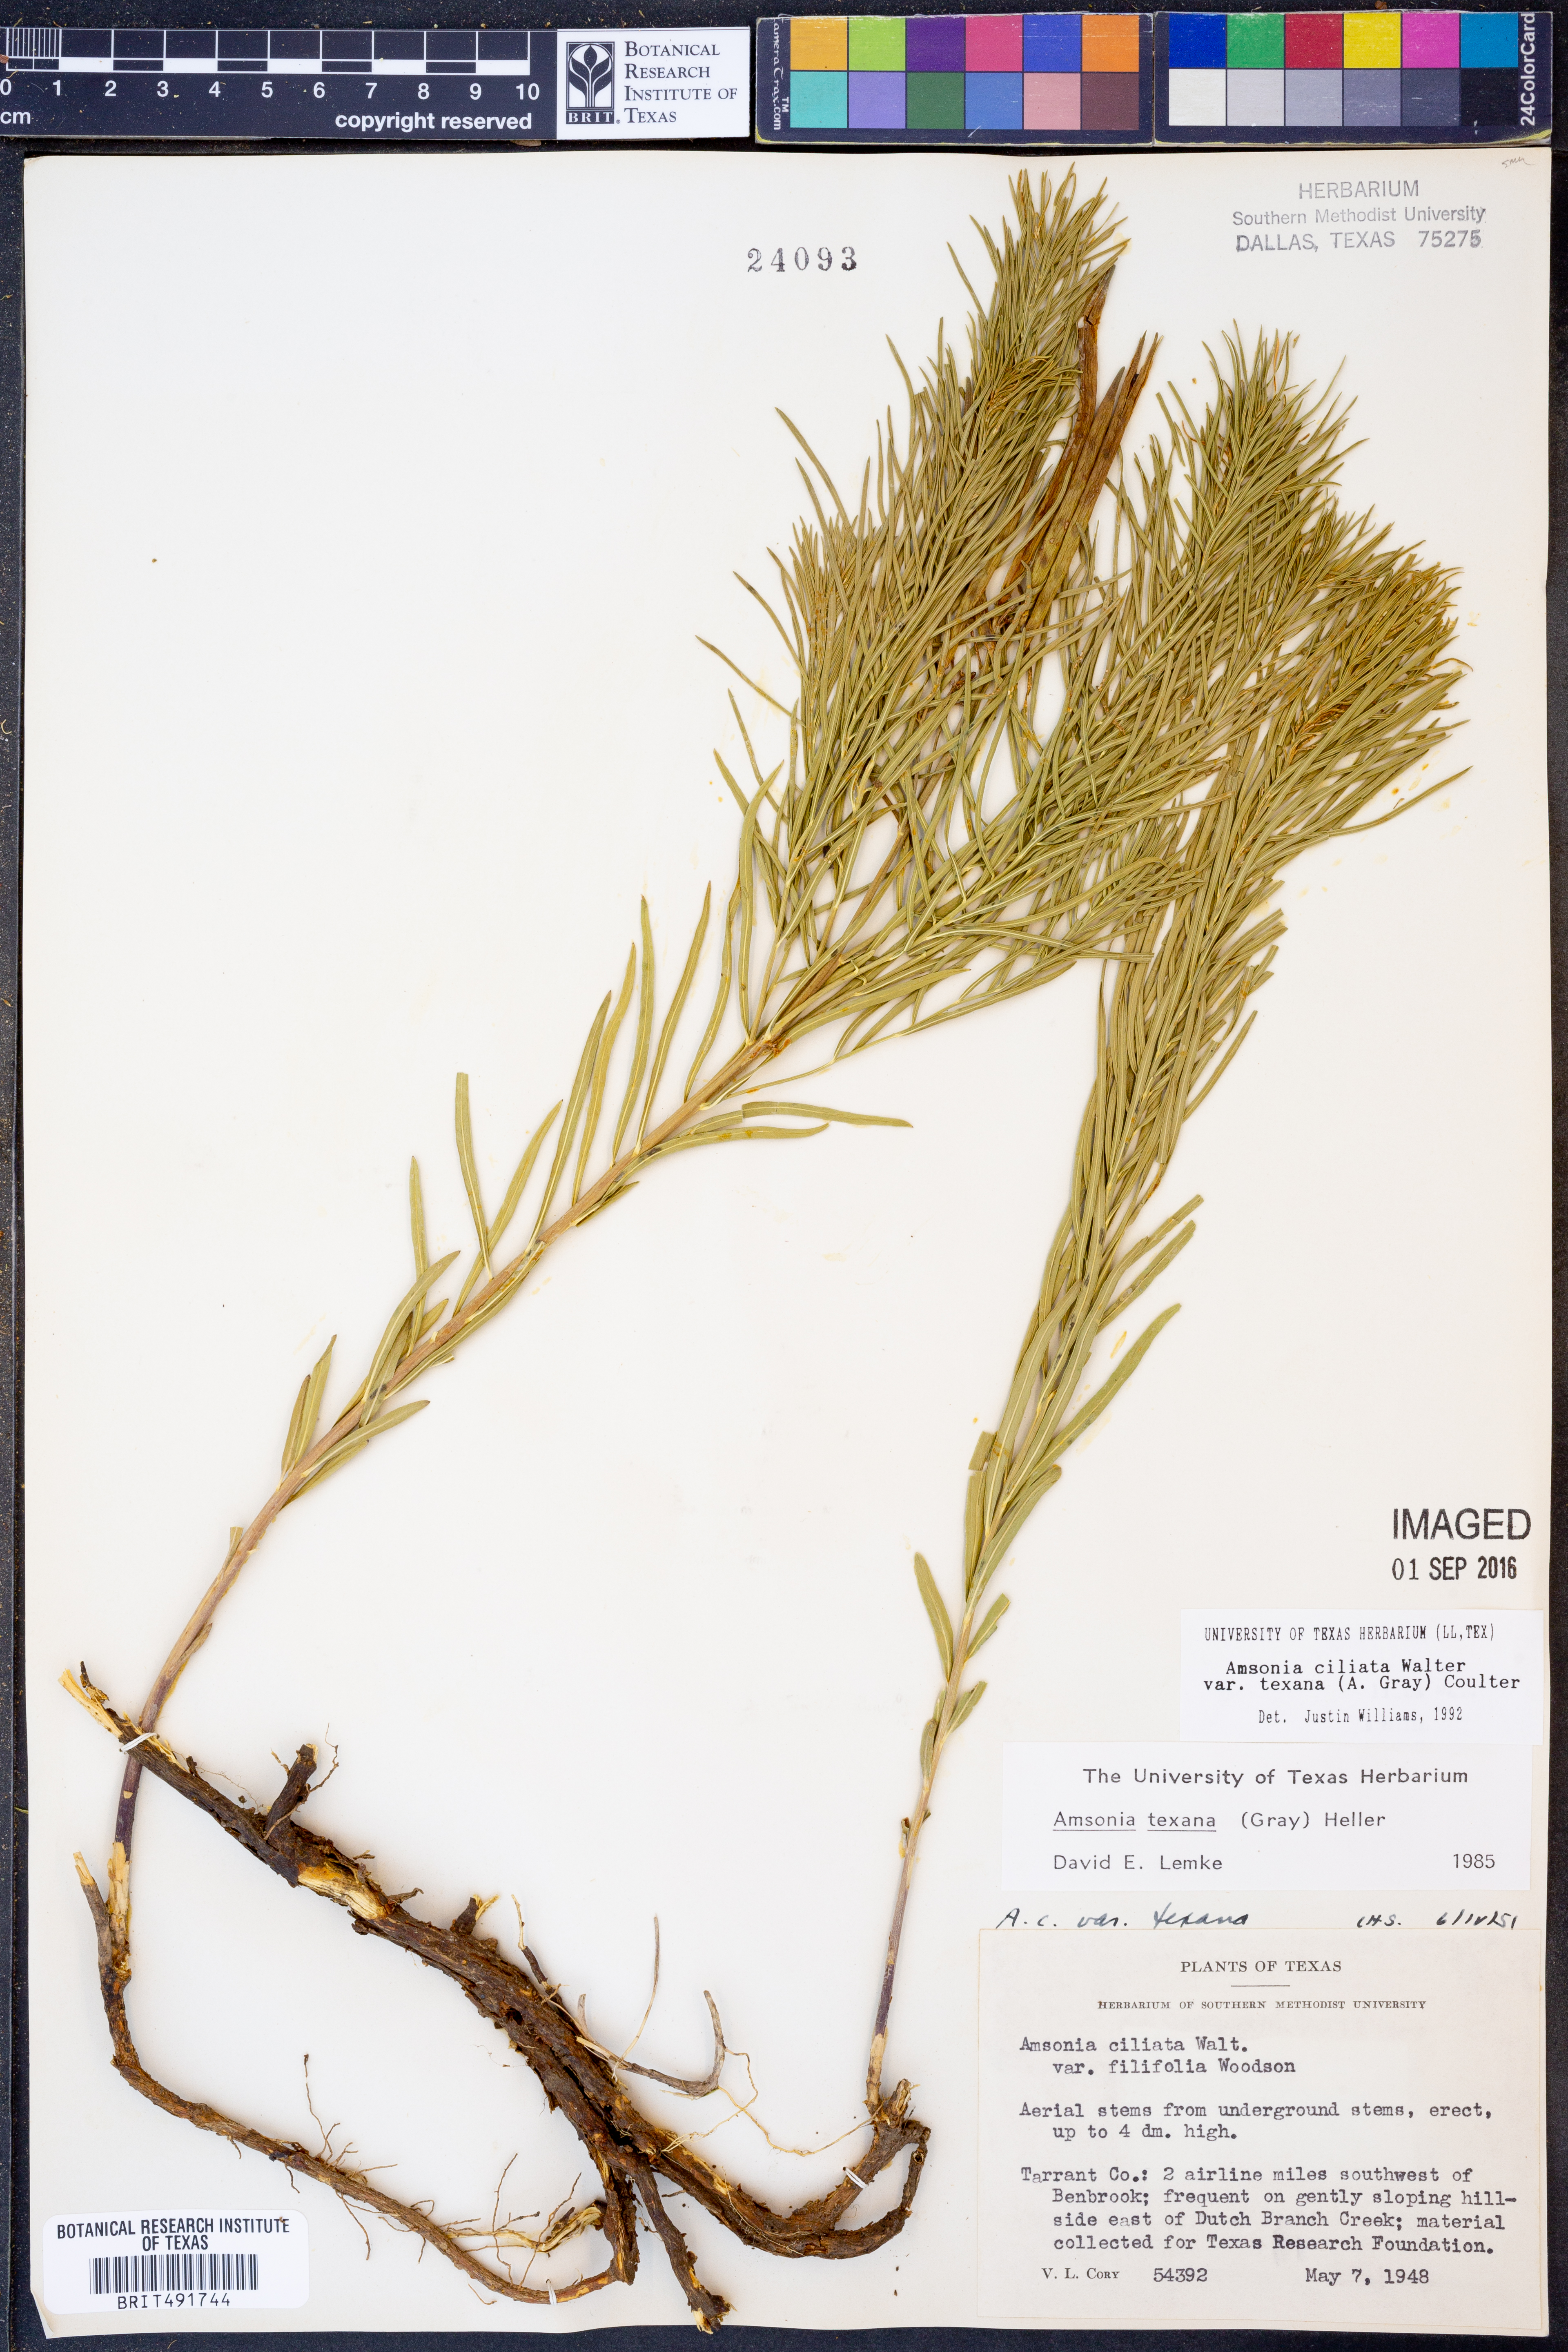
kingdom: Plantae
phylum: Tracheophyta
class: Magnoliopsida
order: Gentianales
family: Apocynaceae
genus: Amsonia
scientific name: Amsonia ciliata
